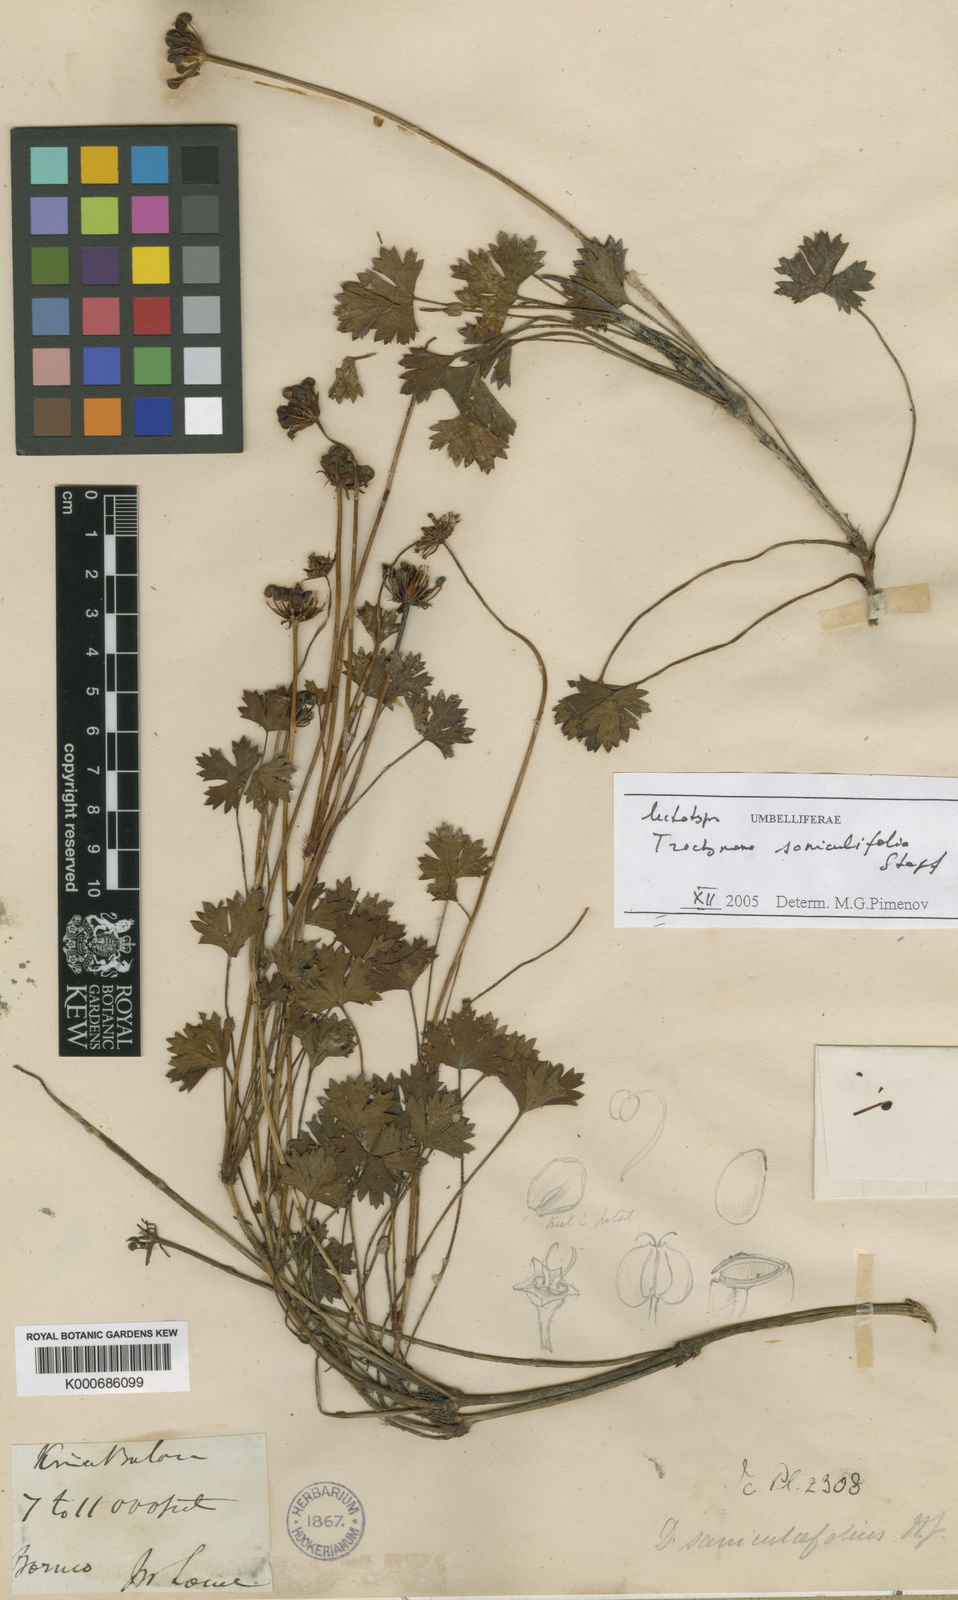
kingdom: Plantae
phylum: Tracheophyta
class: Magnoliopsida
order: Apiales
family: Araliaceae
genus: Trachymene
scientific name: Trachymene saniculifolia
